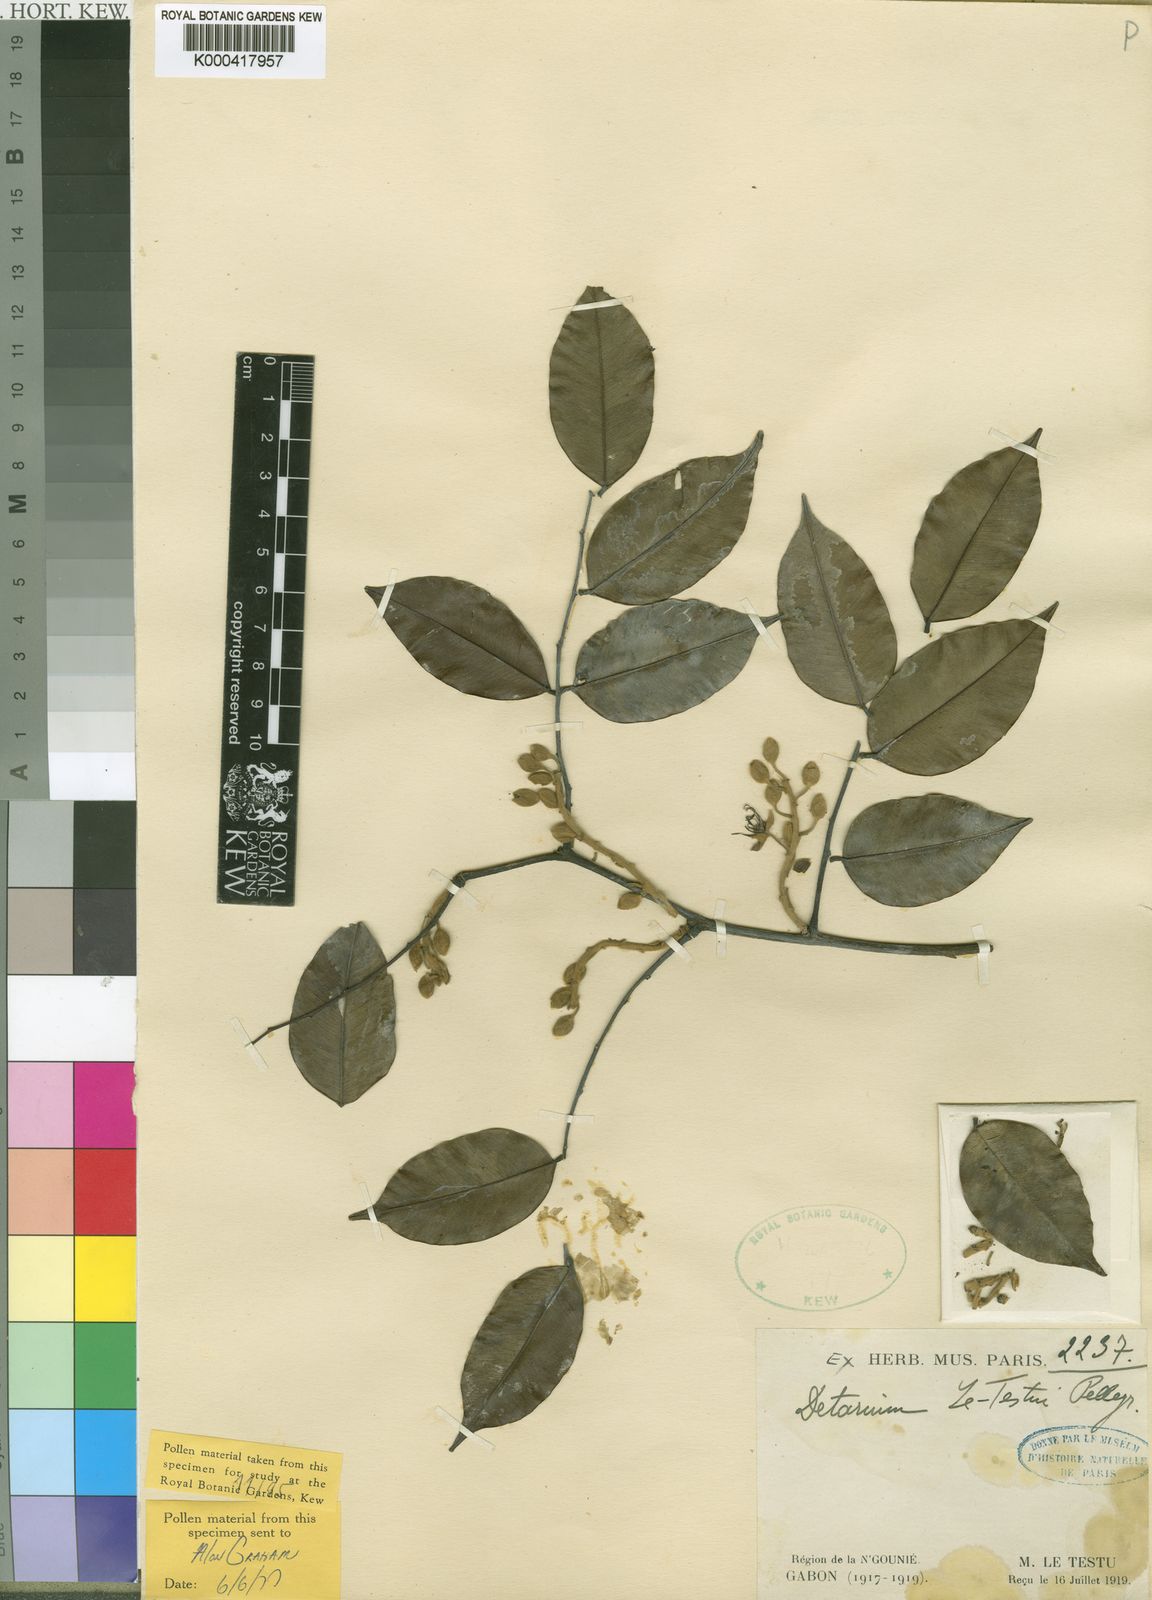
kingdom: Plantae
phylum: Tracheophyta
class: Magnoliopsida
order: Fabales
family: Fabaceae
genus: Sindoropsis
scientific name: Sindoropsis
